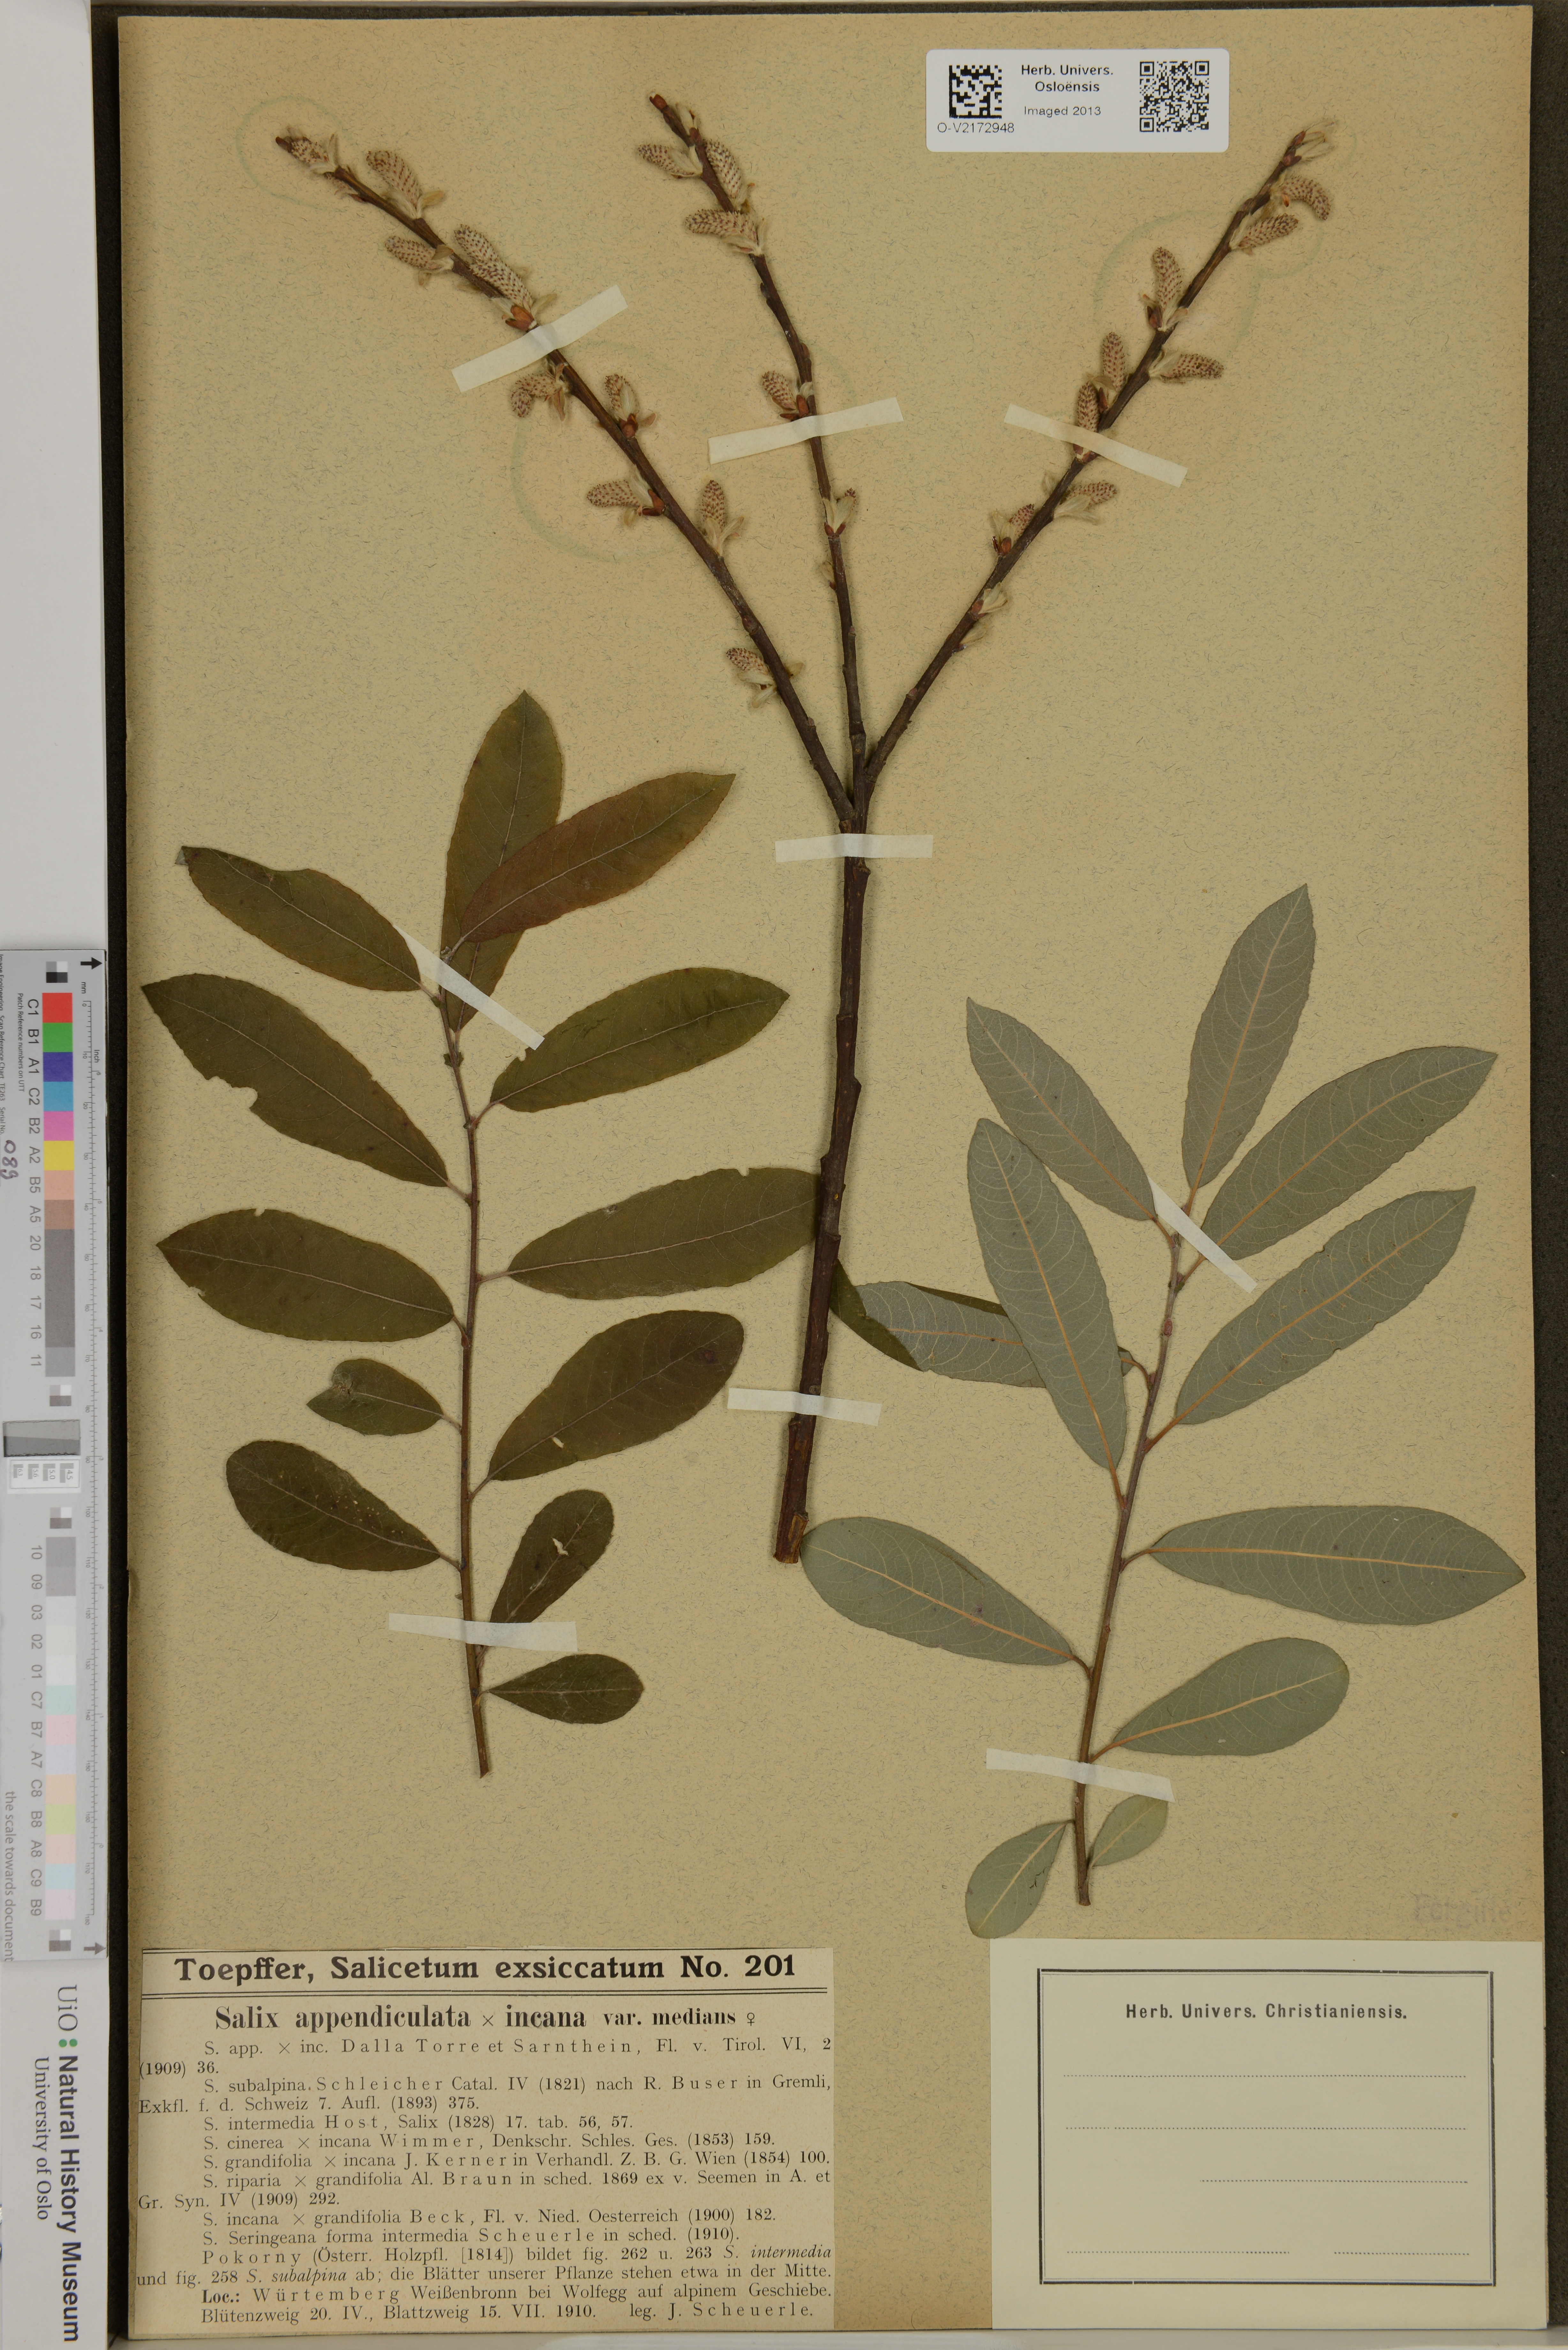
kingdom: Plantae
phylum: Tracheophyta
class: Magnoliopsida
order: Malpighiales
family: Salicaceae
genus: Salix
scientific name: Salix glauca
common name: Glaucous willow
